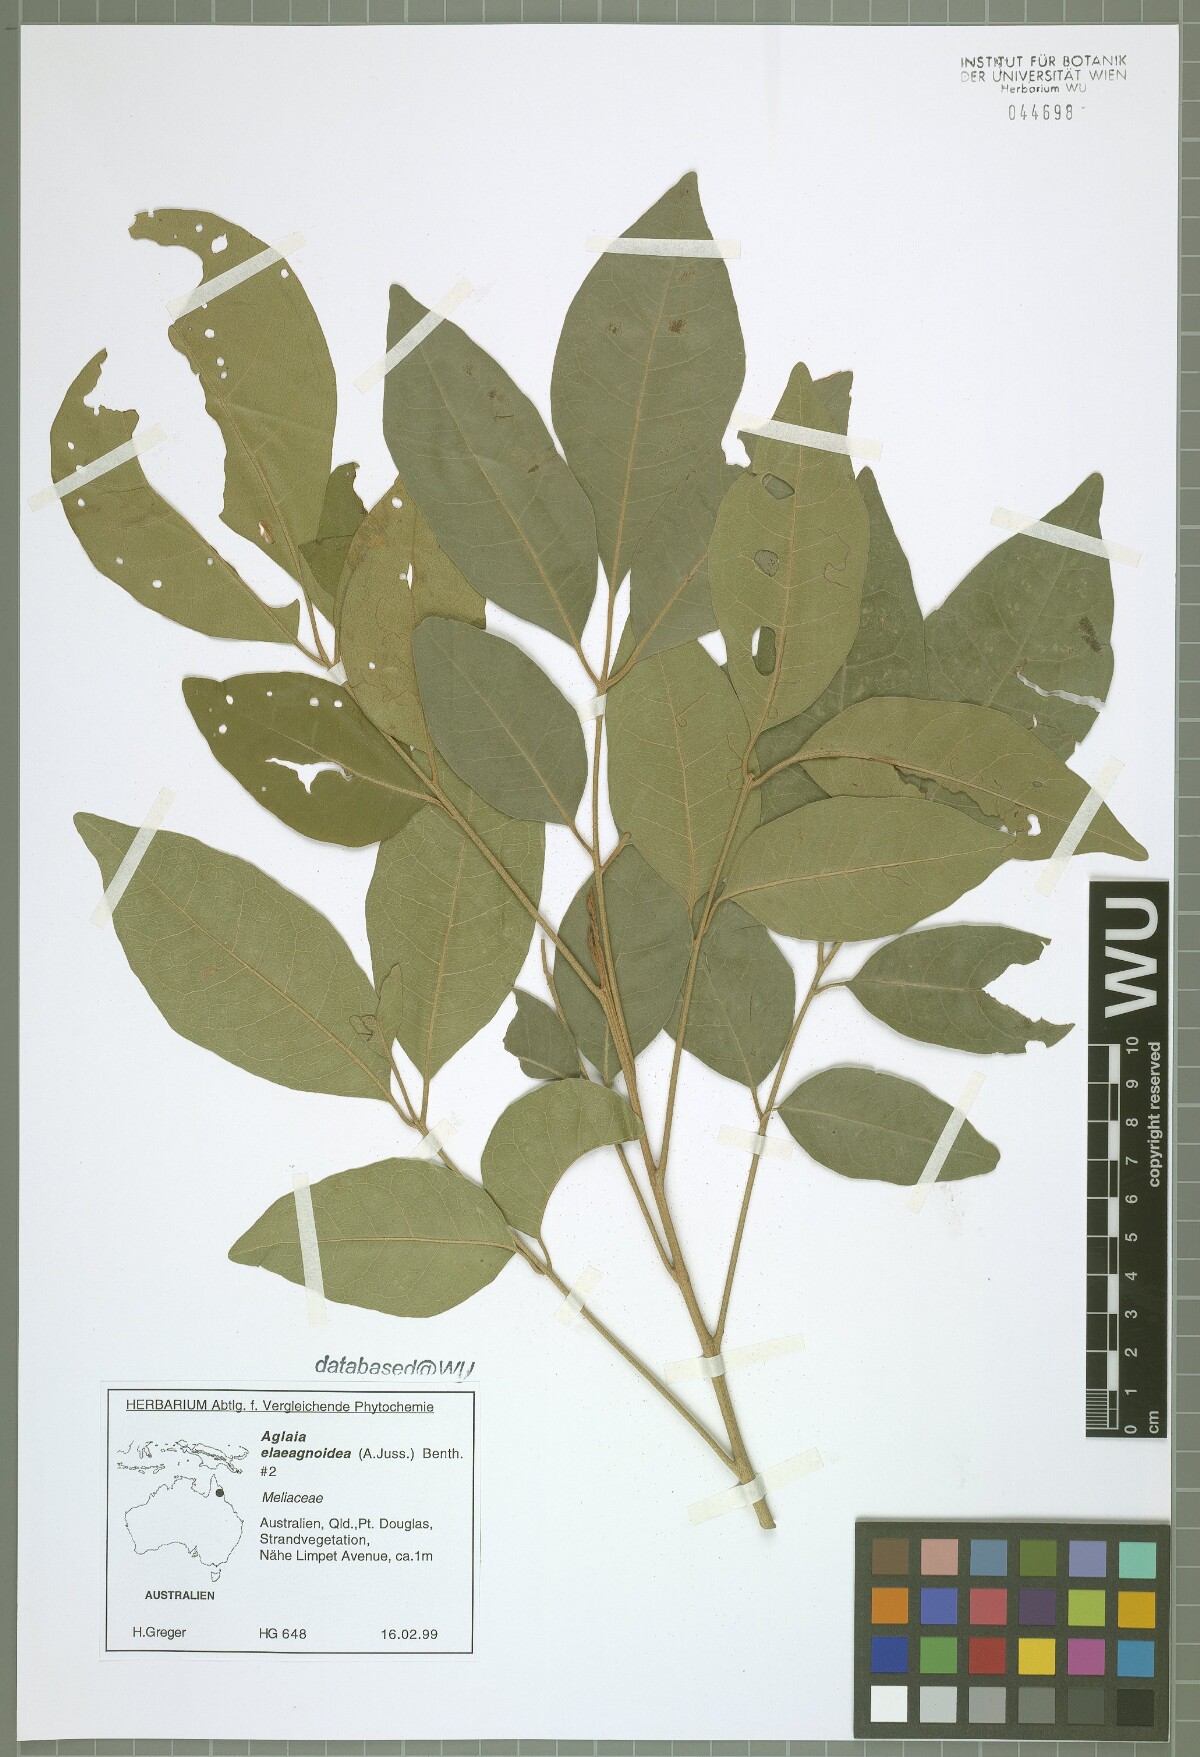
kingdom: Plantae
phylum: Tracheophyta
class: Magnoliopsida
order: Sapindales
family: Meliaceae
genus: Aglaia
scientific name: Aglaia elaeagnoidea
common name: Droopyleaf
